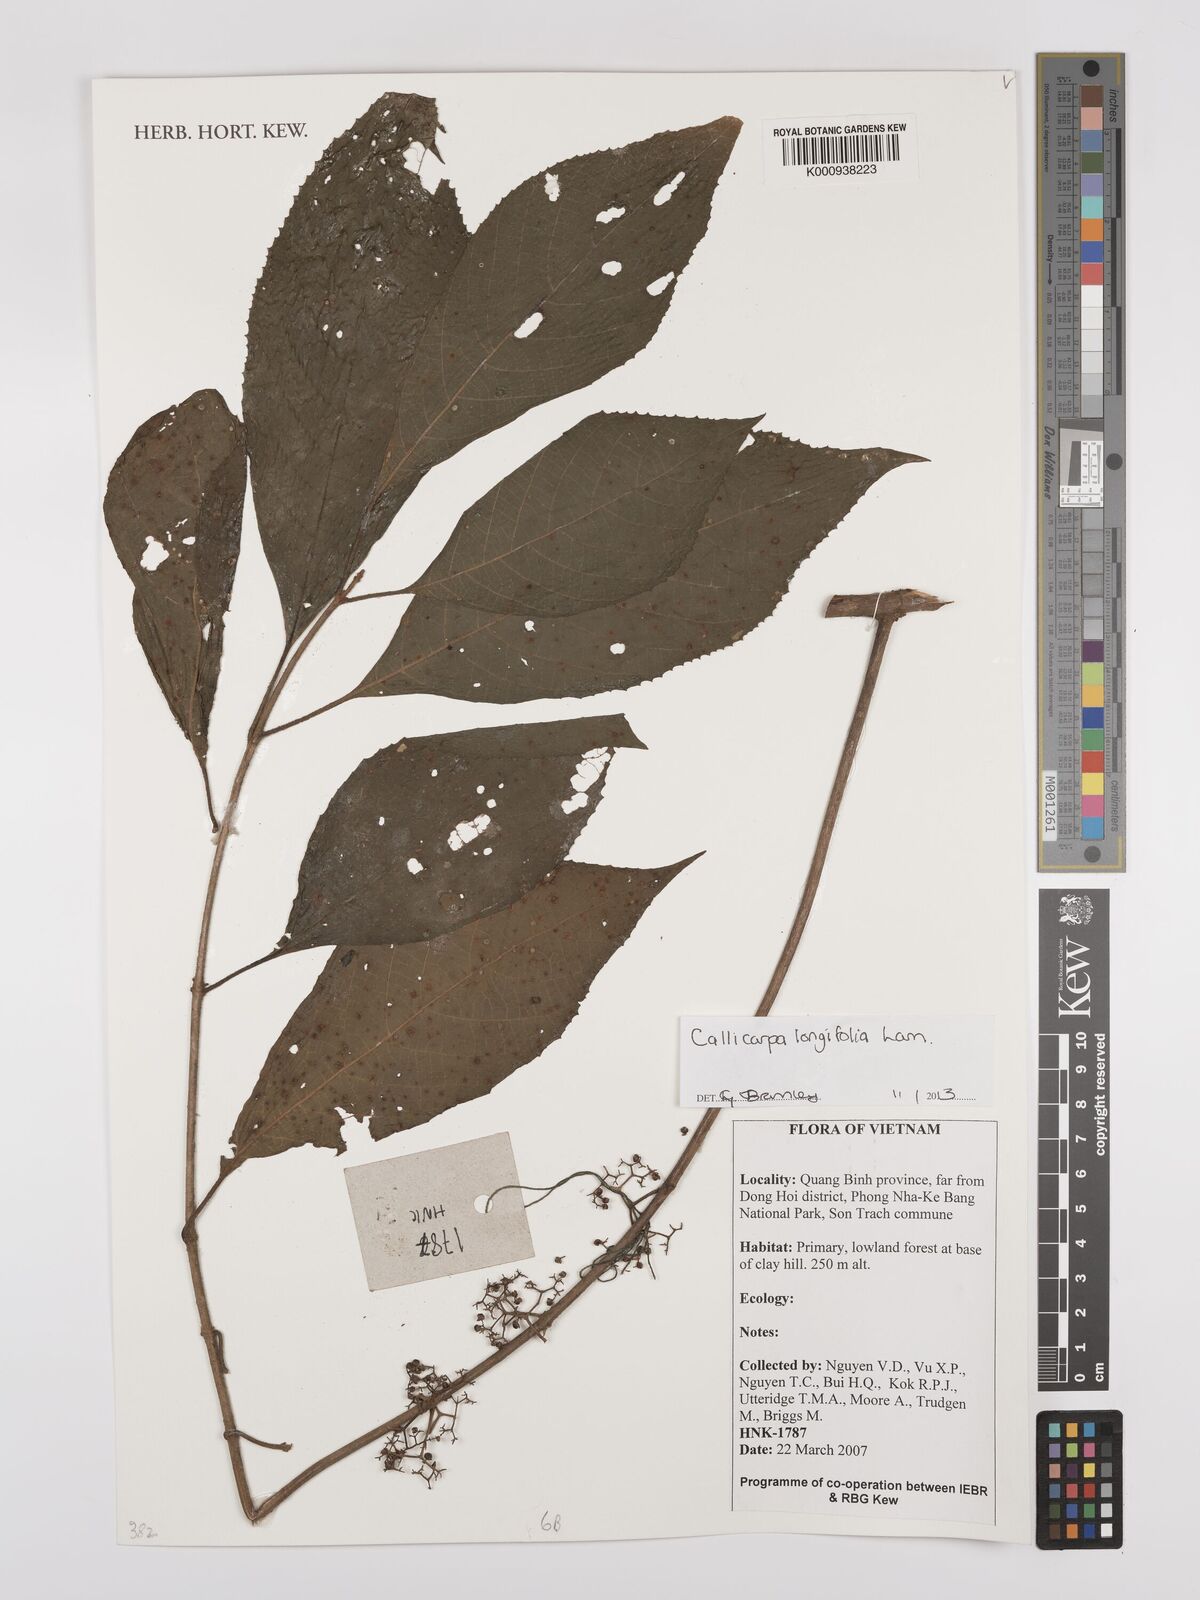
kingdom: Plantae
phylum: Tracheophyta
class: Magnoliopsida
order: Lamiales
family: Lamiaceae
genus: Callicarpa
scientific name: Callicarpa longifolia
